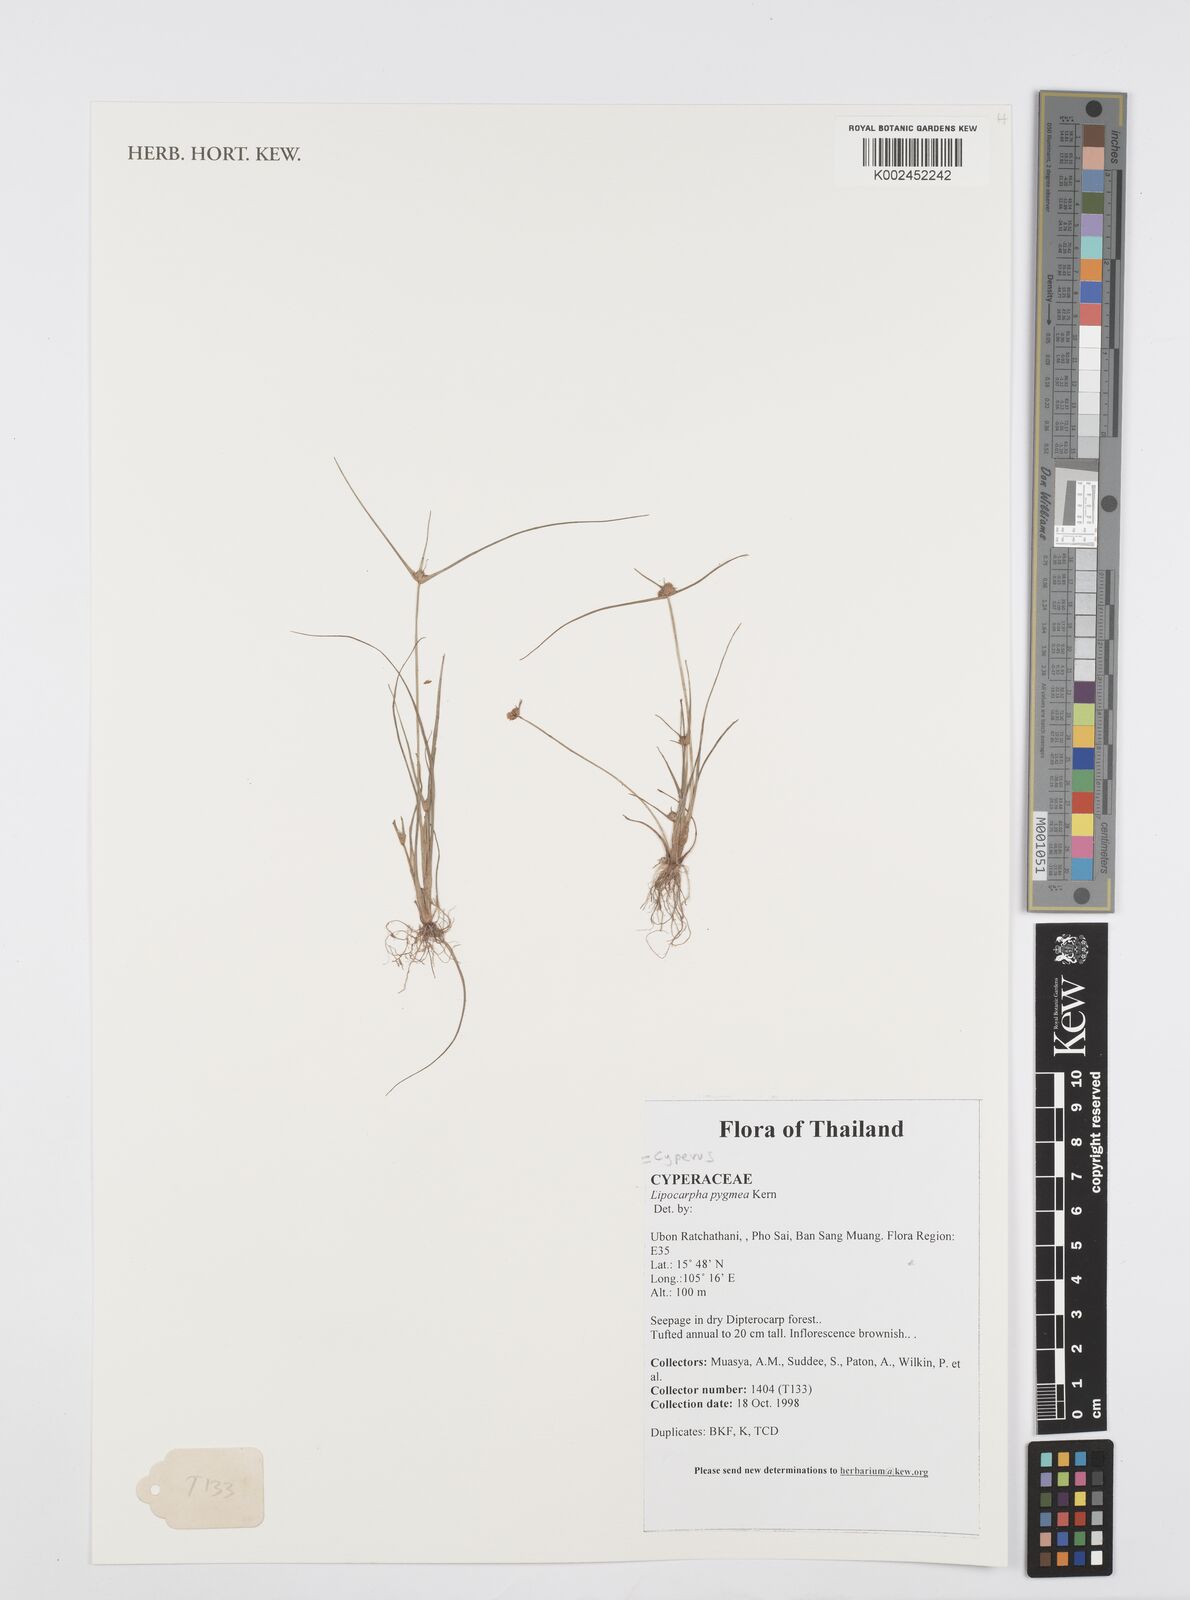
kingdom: Plantae
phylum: Tracheophyta
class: Liliopsida
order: Poales
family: Cyperaceae
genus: Cyperus
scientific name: Cyperus
